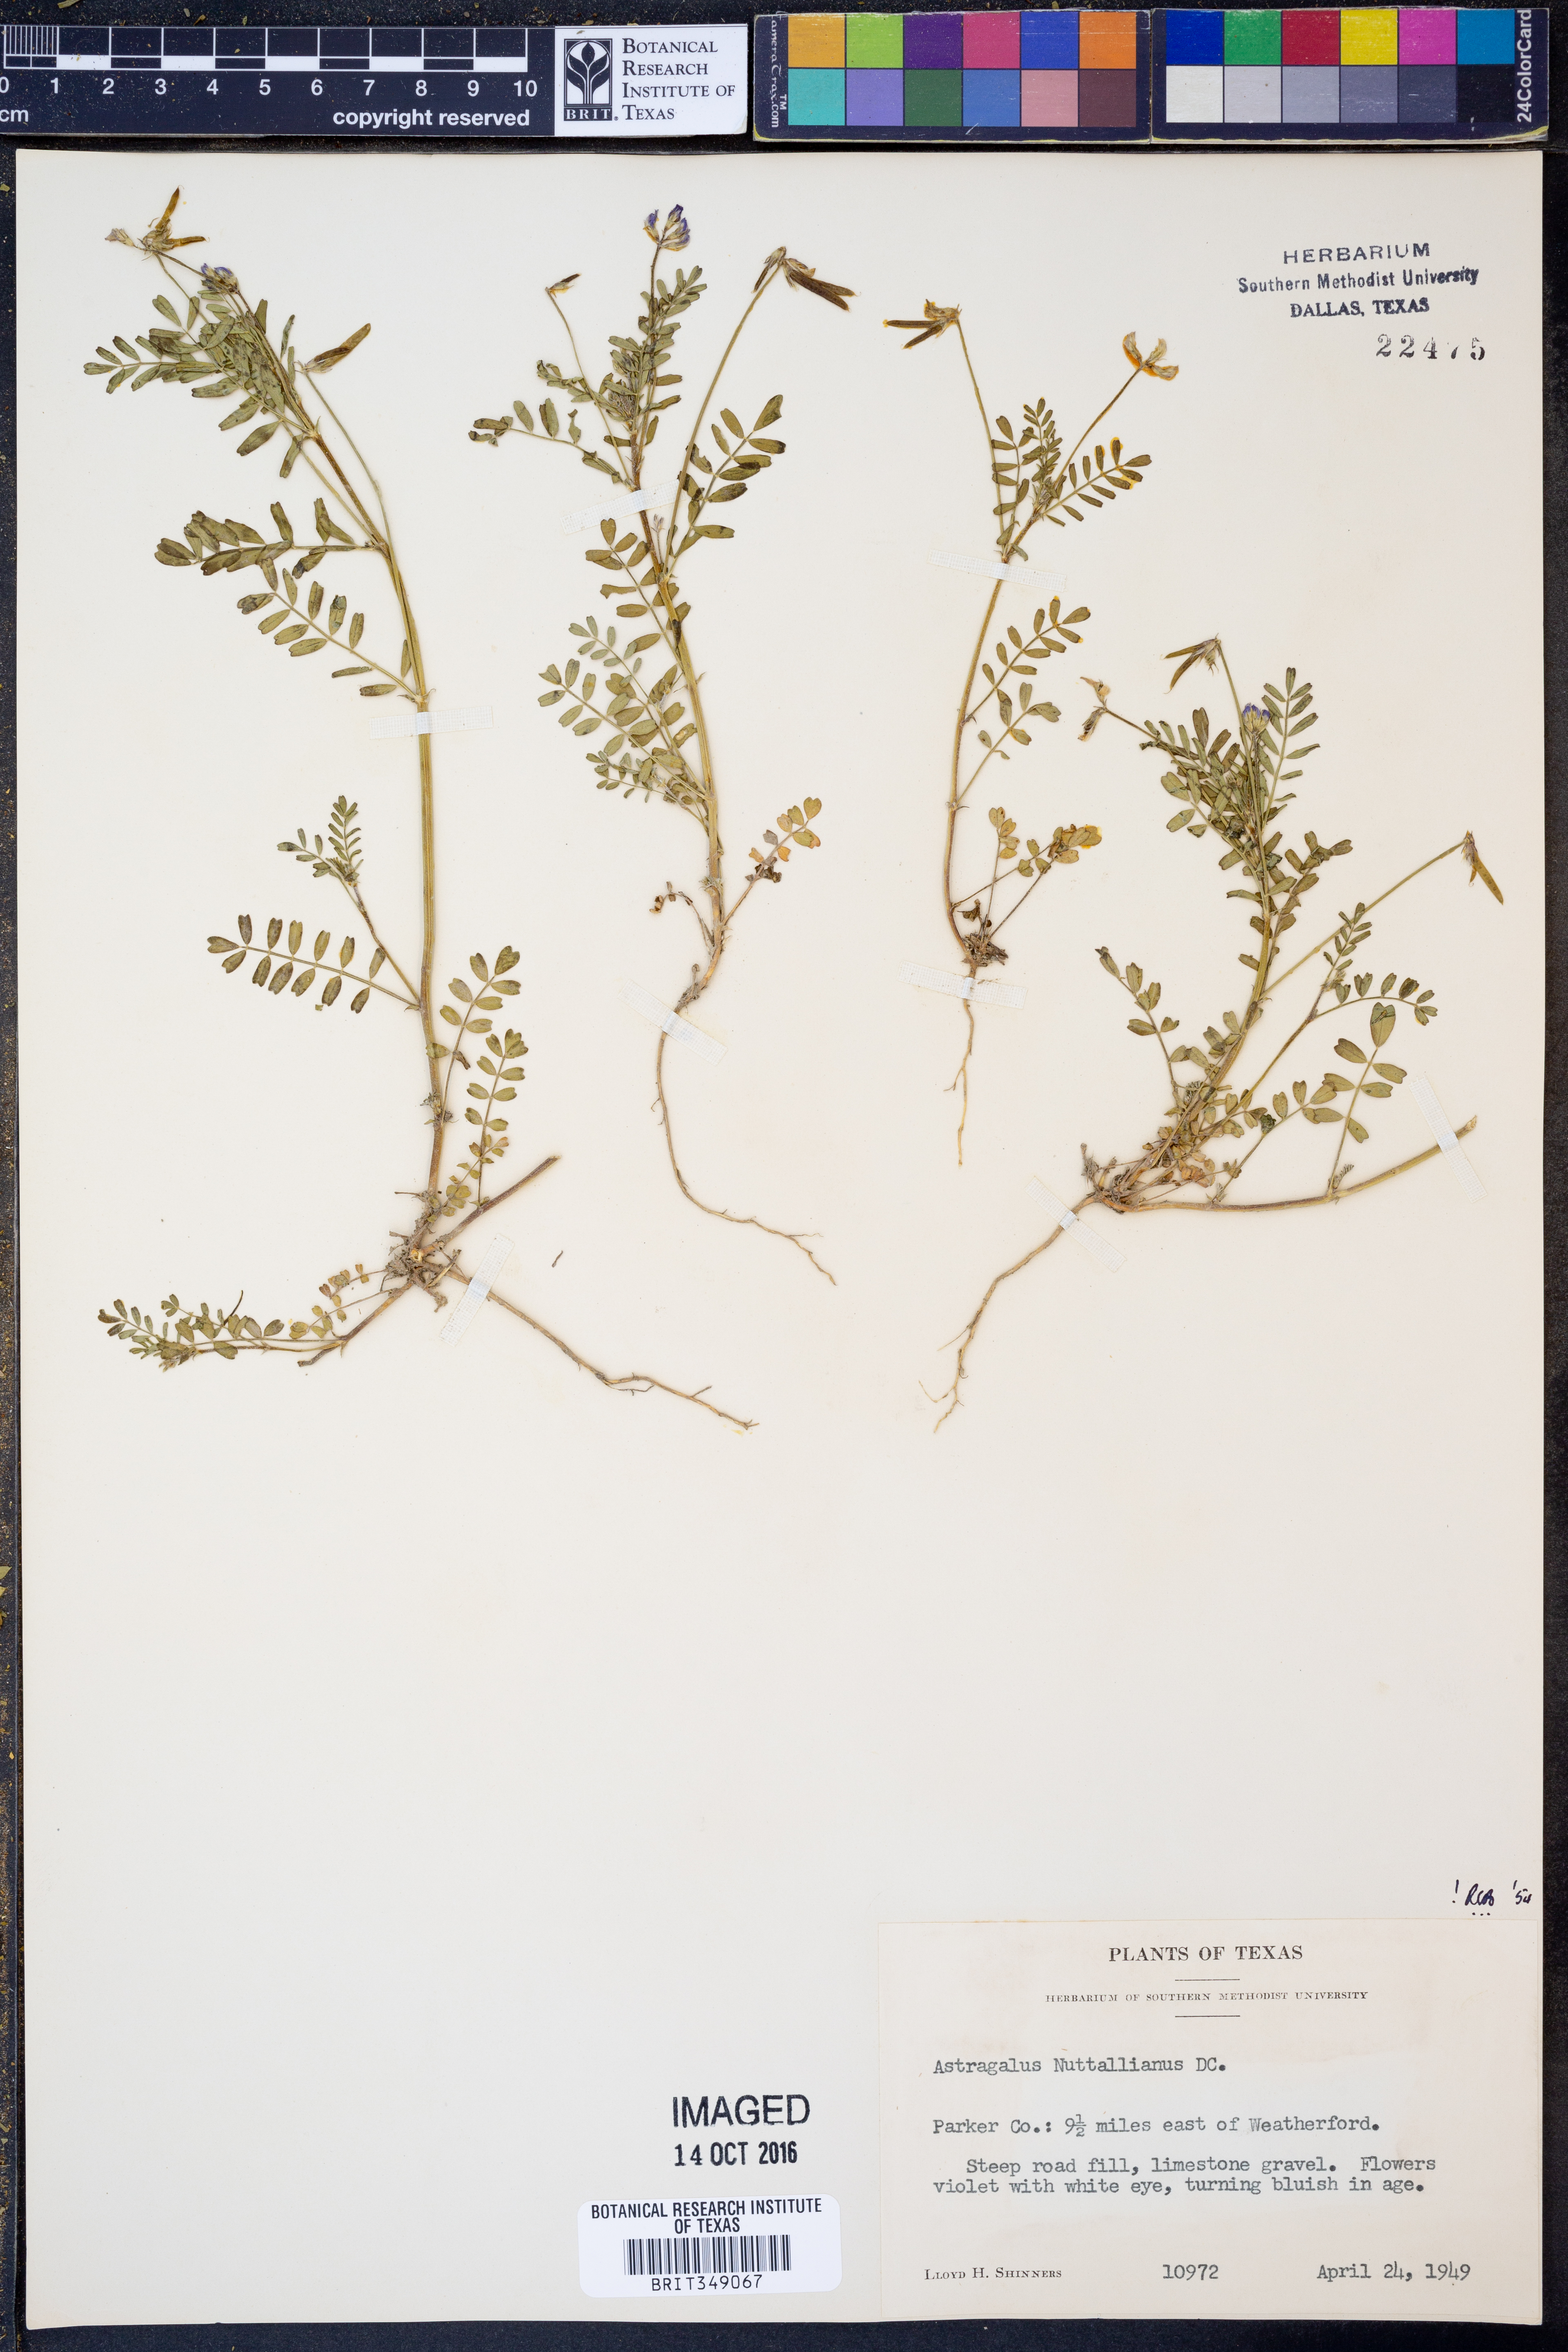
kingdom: Plantae
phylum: Tracheophyta
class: Magnoliopsida
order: Fabales
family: Fabaceae
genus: Astragalus
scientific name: Astragalus nuttallianus
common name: Smallflowered milkvetch
